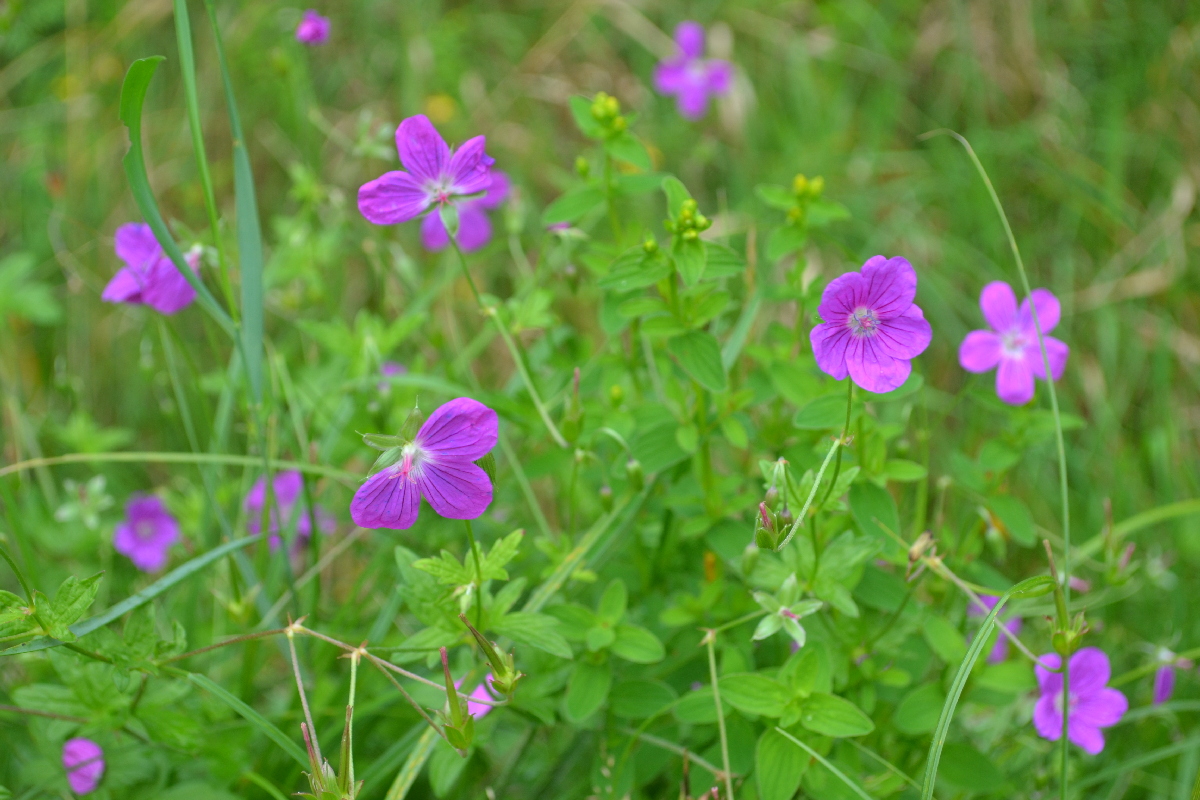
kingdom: Plantae
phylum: Tracheophyta
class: Magnoliopsida
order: Geraniales
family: Geraniaceae
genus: Erodium
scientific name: Erodium cicutarium
